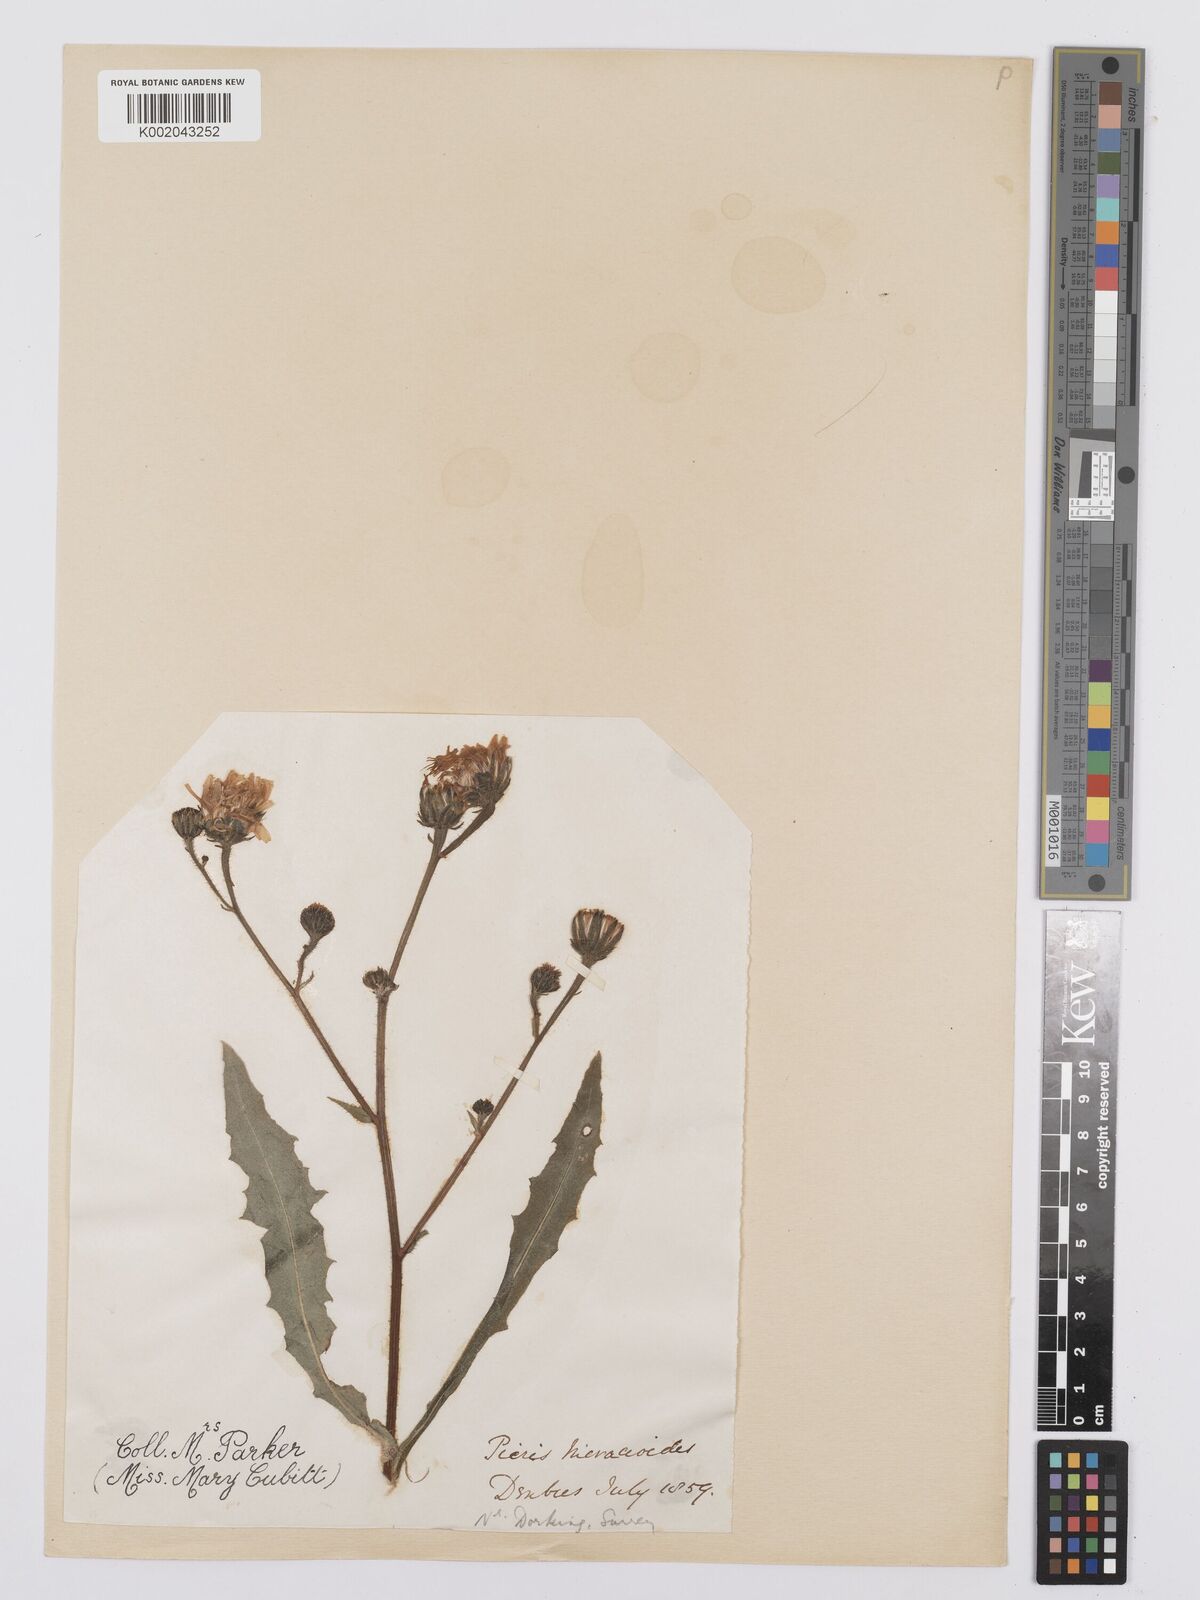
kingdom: Plantae
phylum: Tracheophyta
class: Magnoliopsida
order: Asterales
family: Asteraceae
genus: Picris
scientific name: Picris hieracioides
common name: Hawkweed oxtongue
